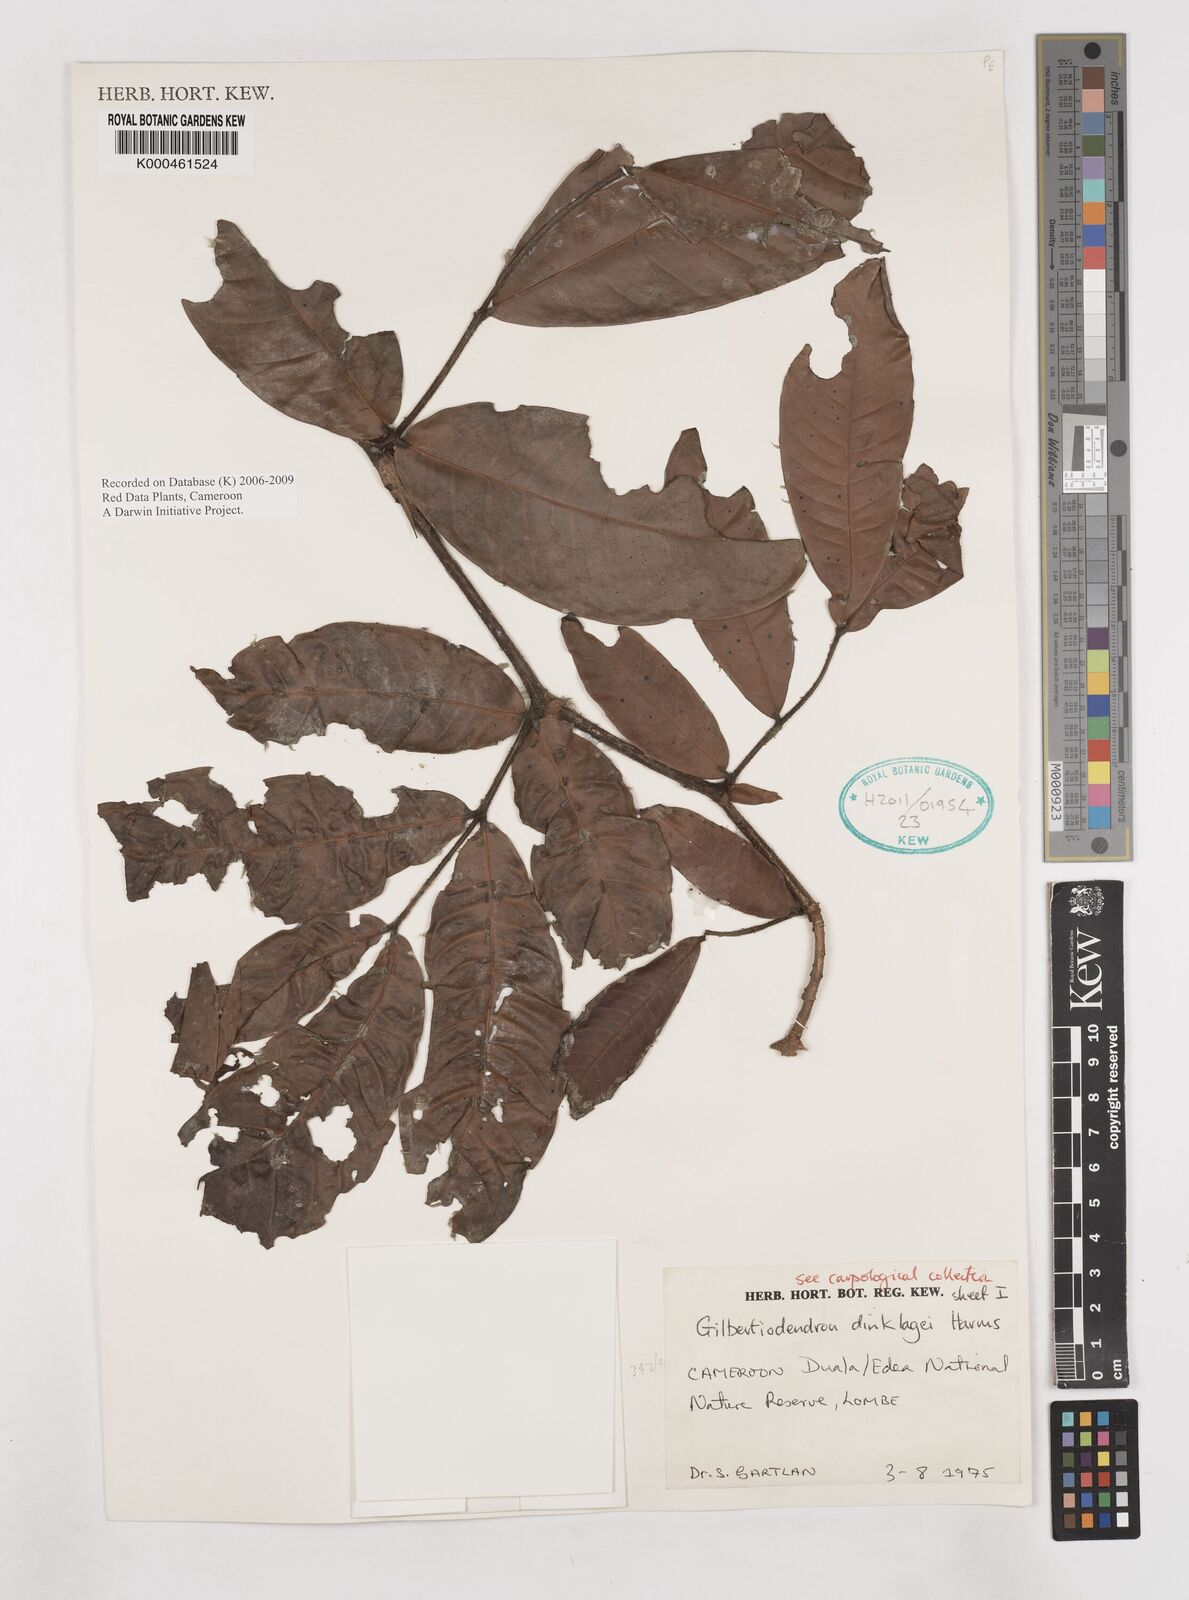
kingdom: Plantae
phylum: Tracheophyta
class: Magnoliopsida
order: Fabales
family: Fabaceae
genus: Gilbertiodendron
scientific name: Gilbertiodendron demonstrans
